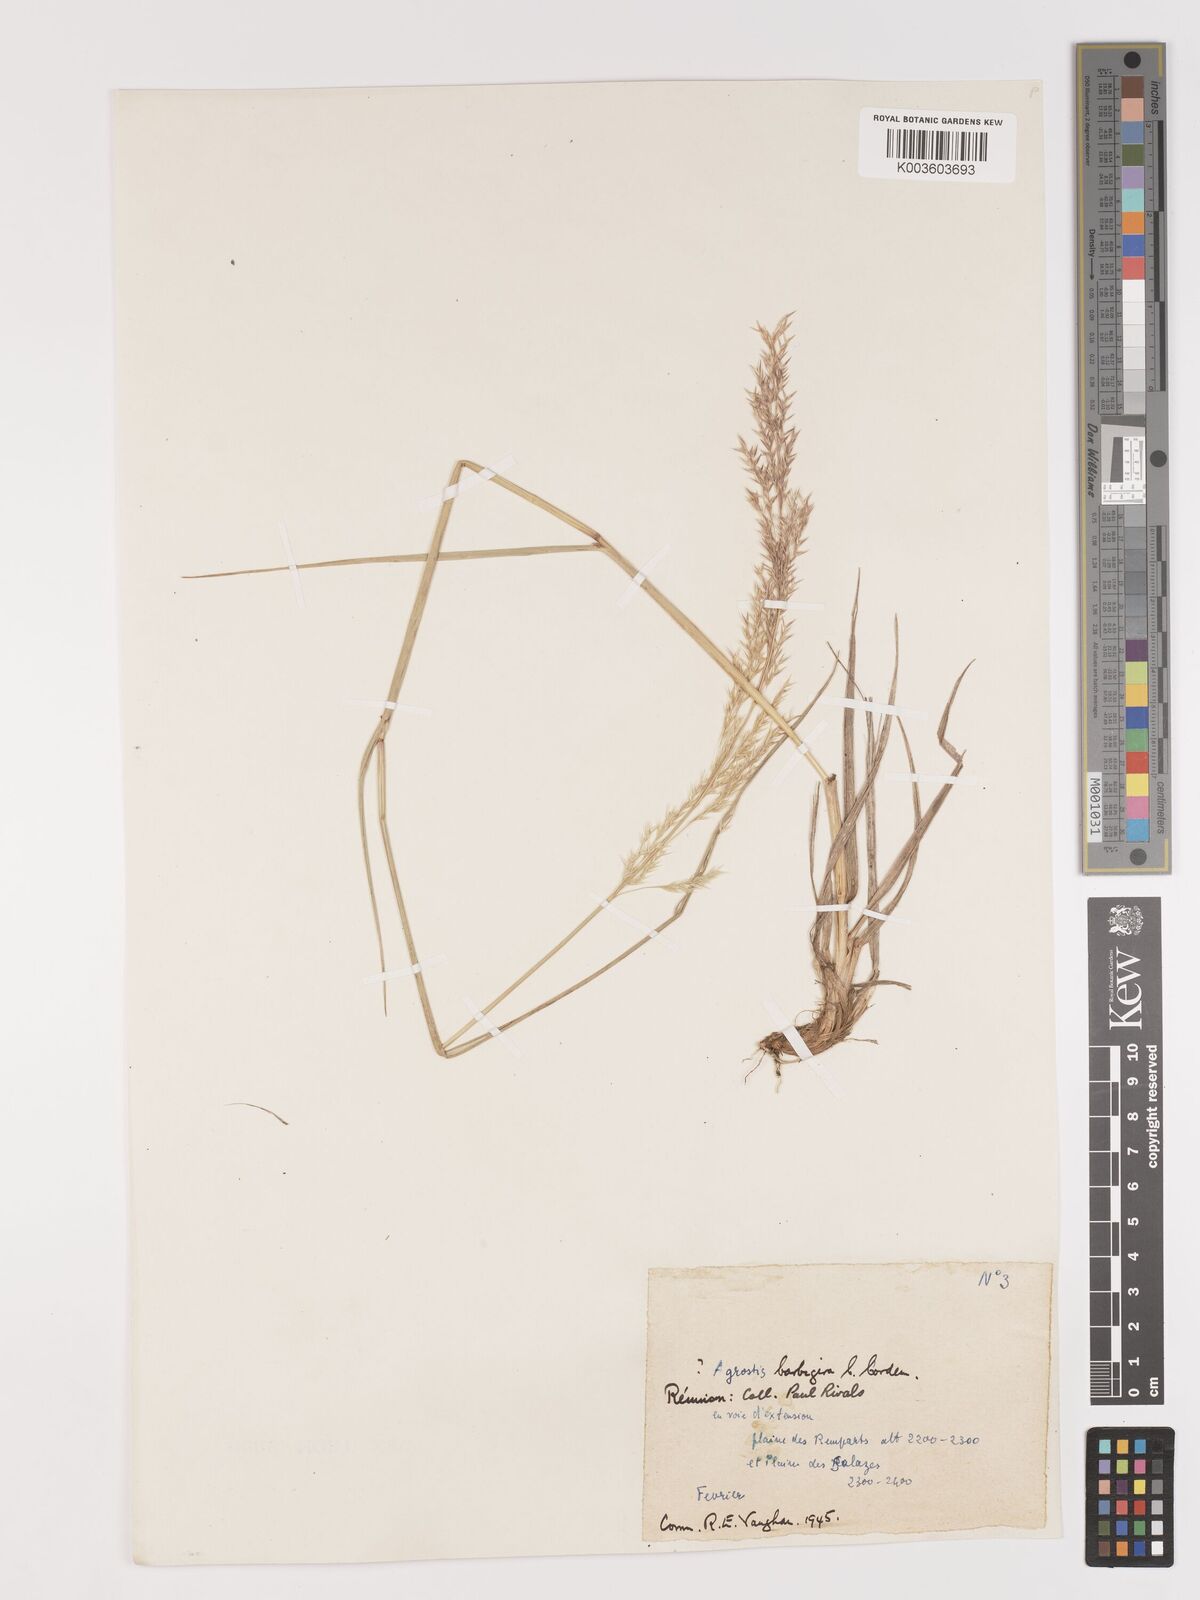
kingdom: Plantae
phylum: Tracheophyta
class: Liliopsida
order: Poales
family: Poaceae
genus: Agrostis
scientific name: Agrostis salaziensis
